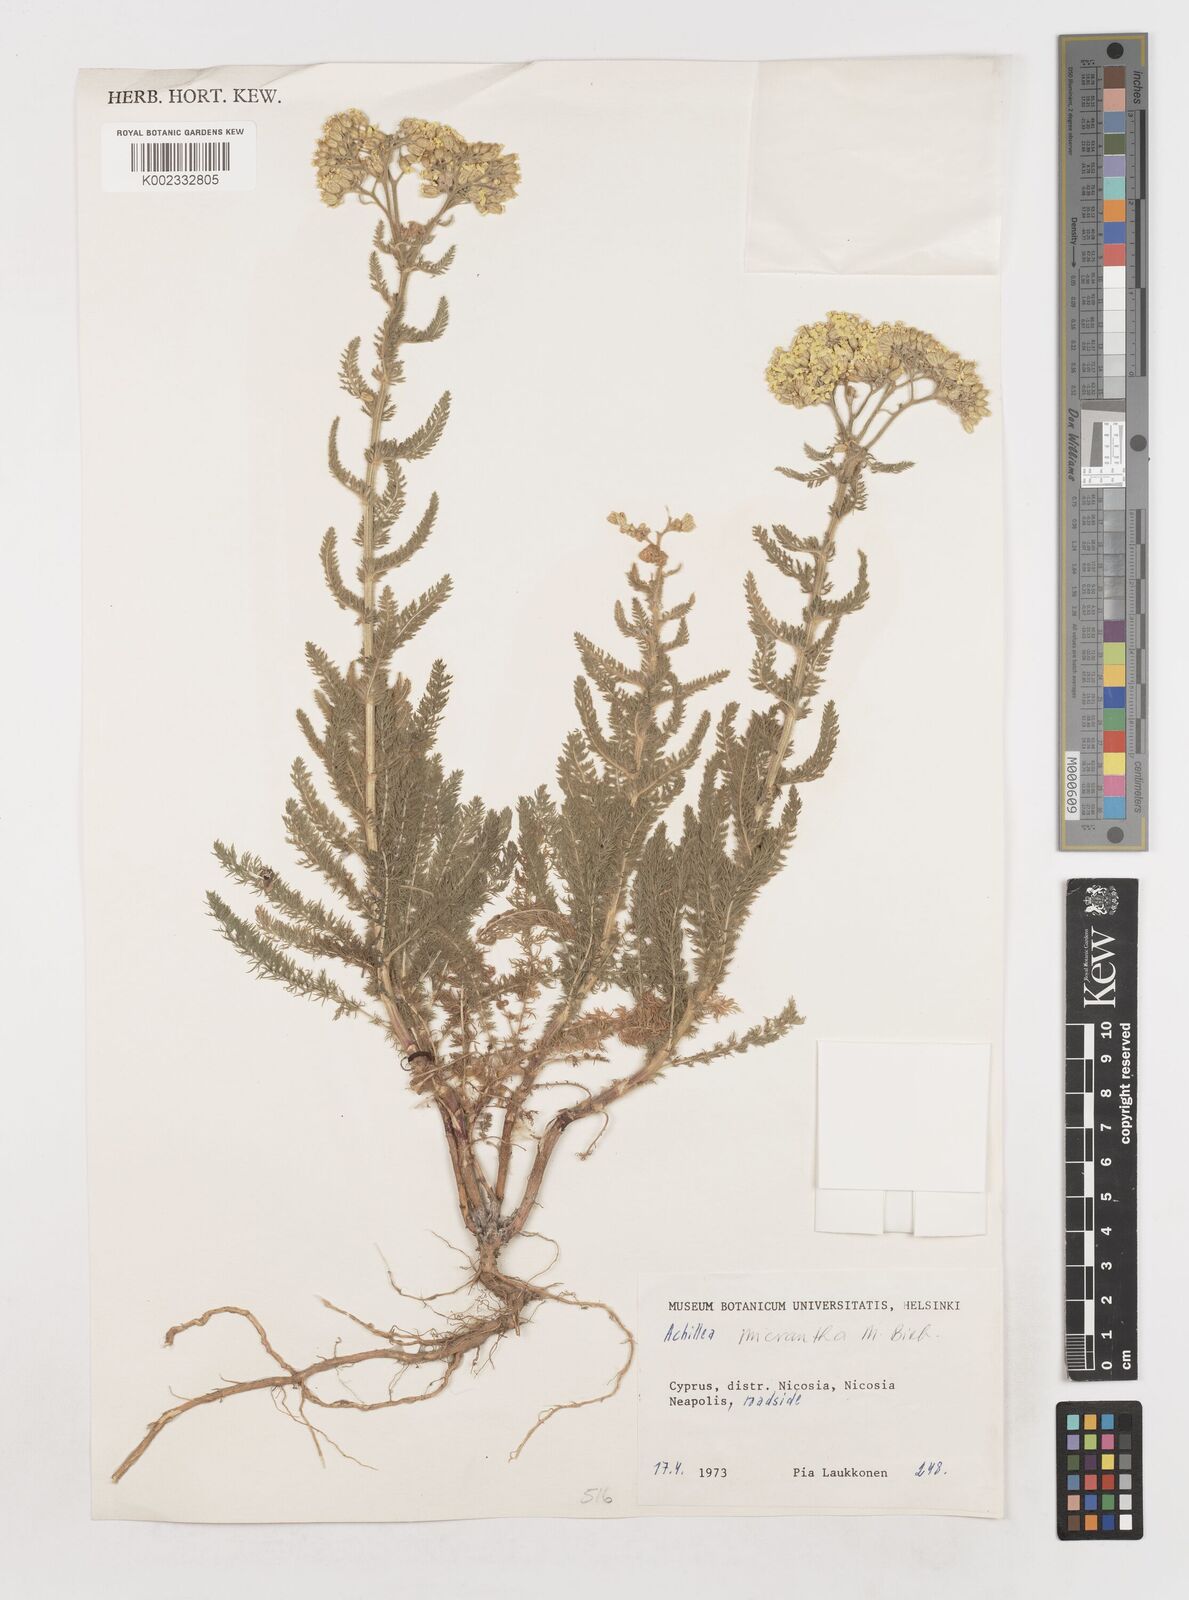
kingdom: Plantae
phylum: Tracheophyta
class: Magnoliopsida
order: Asterales
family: Asteraceae
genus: Achillea
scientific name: Achillea micrantha
